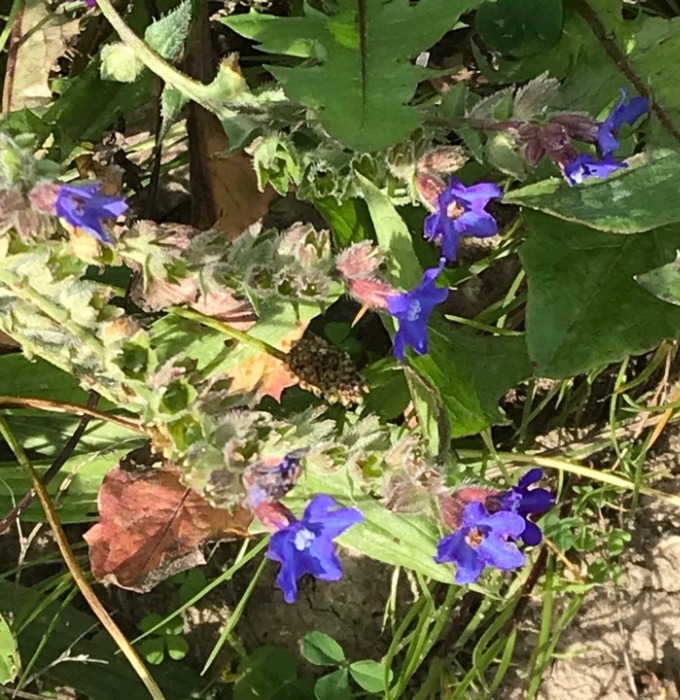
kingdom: Plantae
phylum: Tracheophyta
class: Magnoliopsida
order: Boraginales
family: Boraginaceae
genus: Anchusa
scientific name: Anchusa officinalis
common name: Læge-oksetunge
